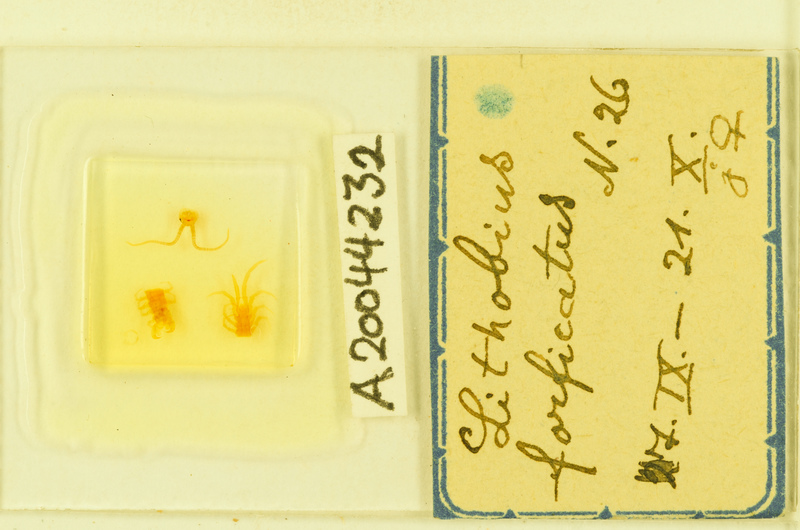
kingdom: Animalia
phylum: Arthropoda
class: Chilopoda
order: Lithobiomorpha
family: Lithobiidae
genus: Lithobius
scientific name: Lithobius forficatus
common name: Centipede
